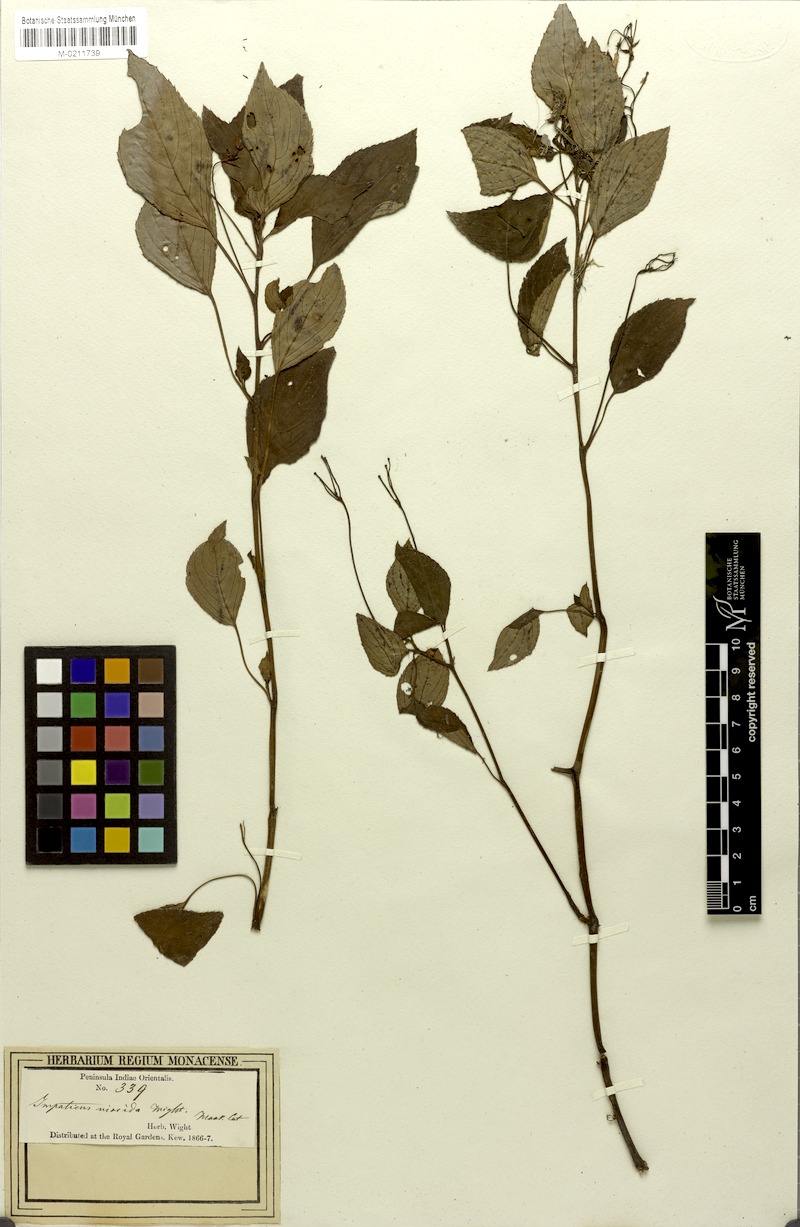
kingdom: Plantae
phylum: Tracheophyta
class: Magnoliopsida
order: Ericales
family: Balsaminaceae
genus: Impatiens
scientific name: Impatiens viscida
